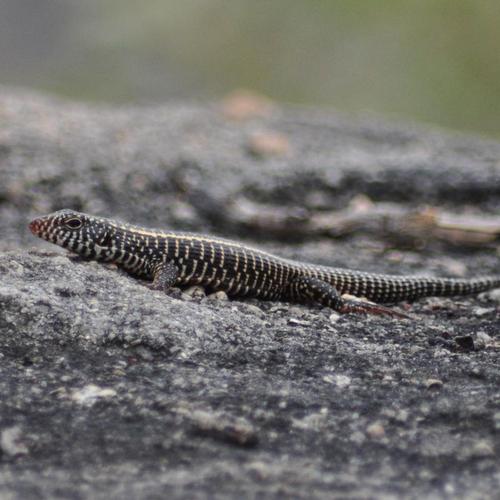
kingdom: Animalia
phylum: Chordata
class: Squamata
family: Gerrhosauridae
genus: Matobosaurus
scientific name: Matobosaurus validus
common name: Common giant plated lizard
